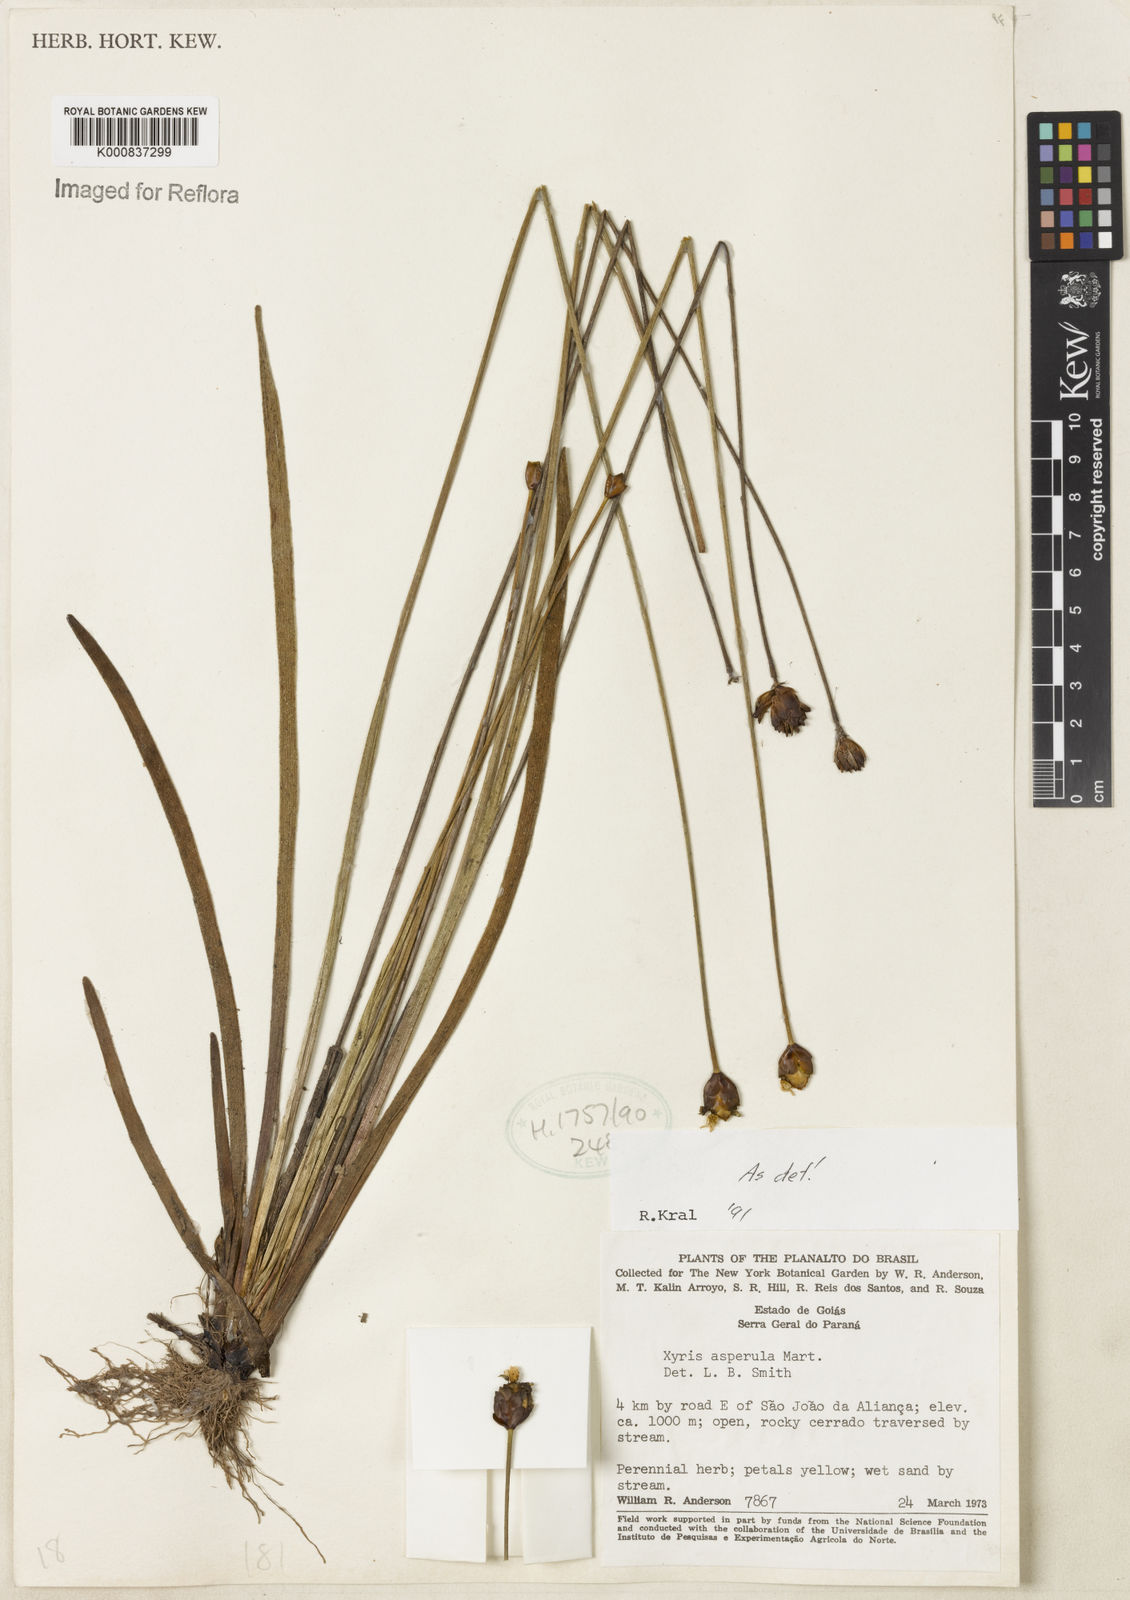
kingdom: Plantae
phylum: Tracheophyta
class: Liliopsida
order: Poales
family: Xyridaceae
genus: Xyris
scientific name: Xyris asperula
